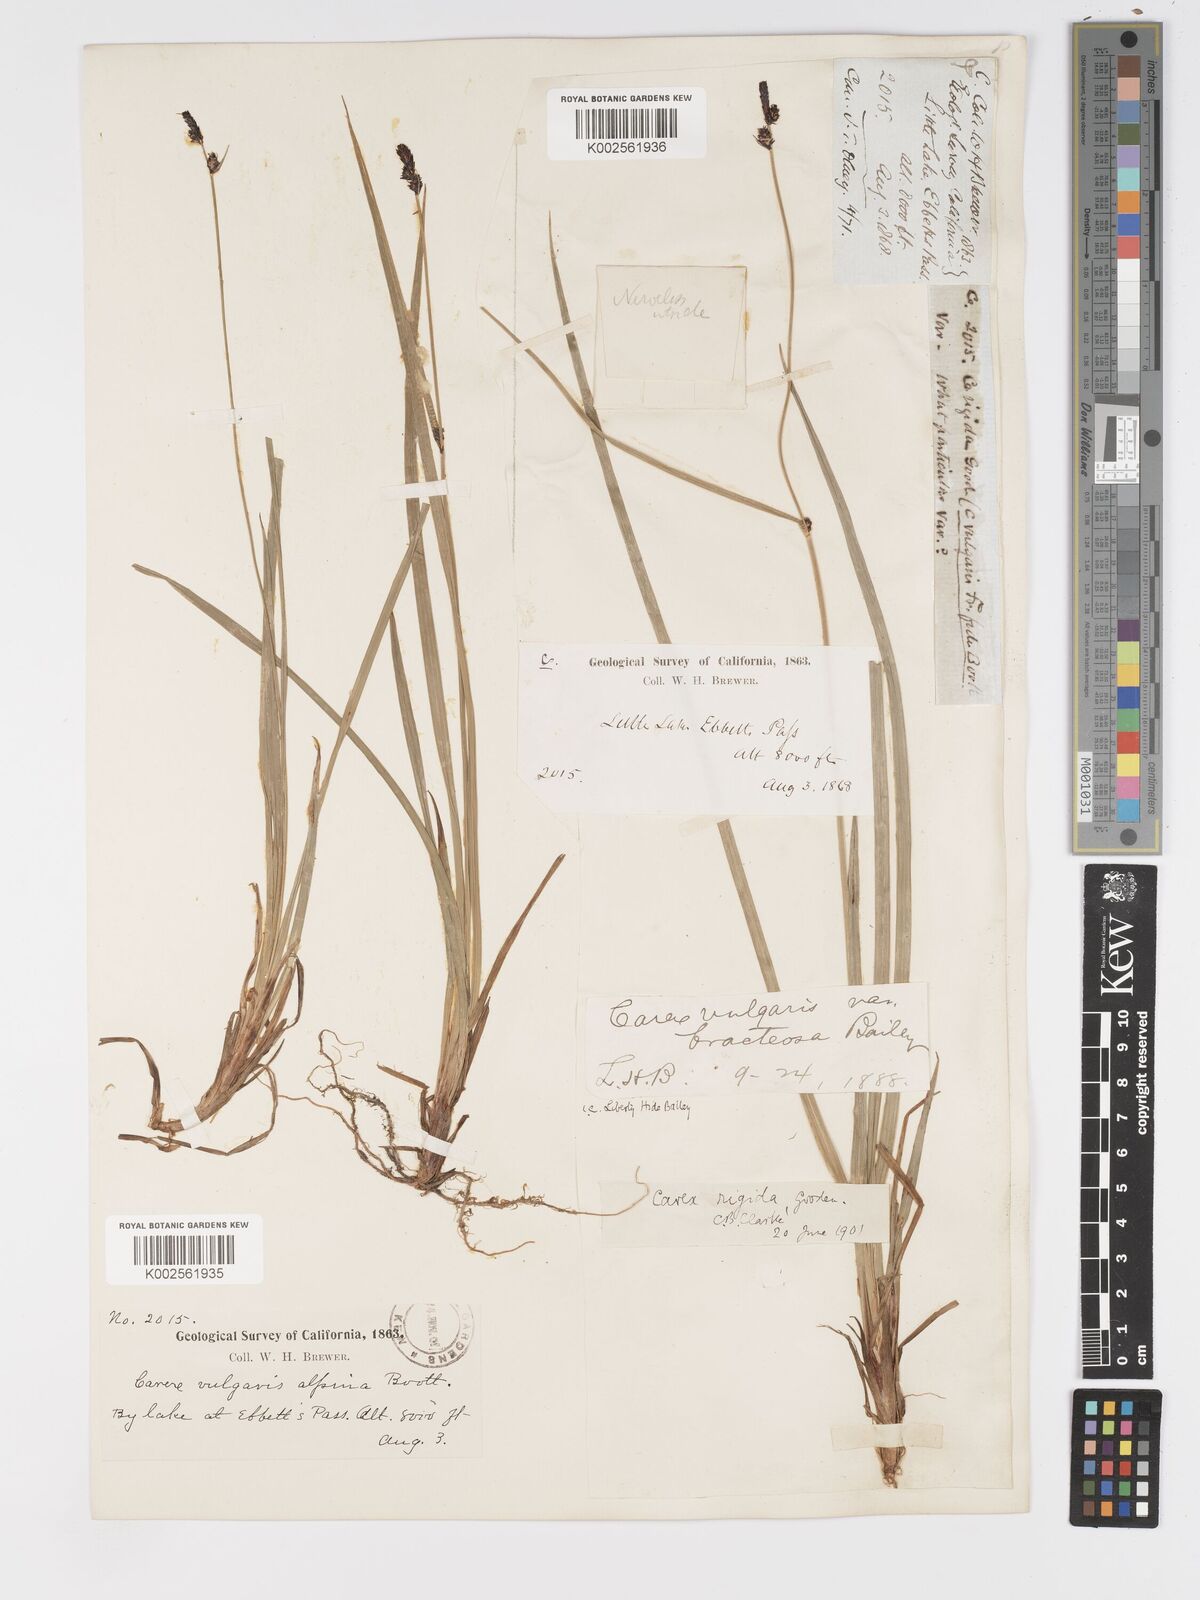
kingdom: Plantae
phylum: Tracheophyta
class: Liliopsida
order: Poales
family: Cyperaceae
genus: Carex
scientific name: Carex bigelowii
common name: Stiff sedge
